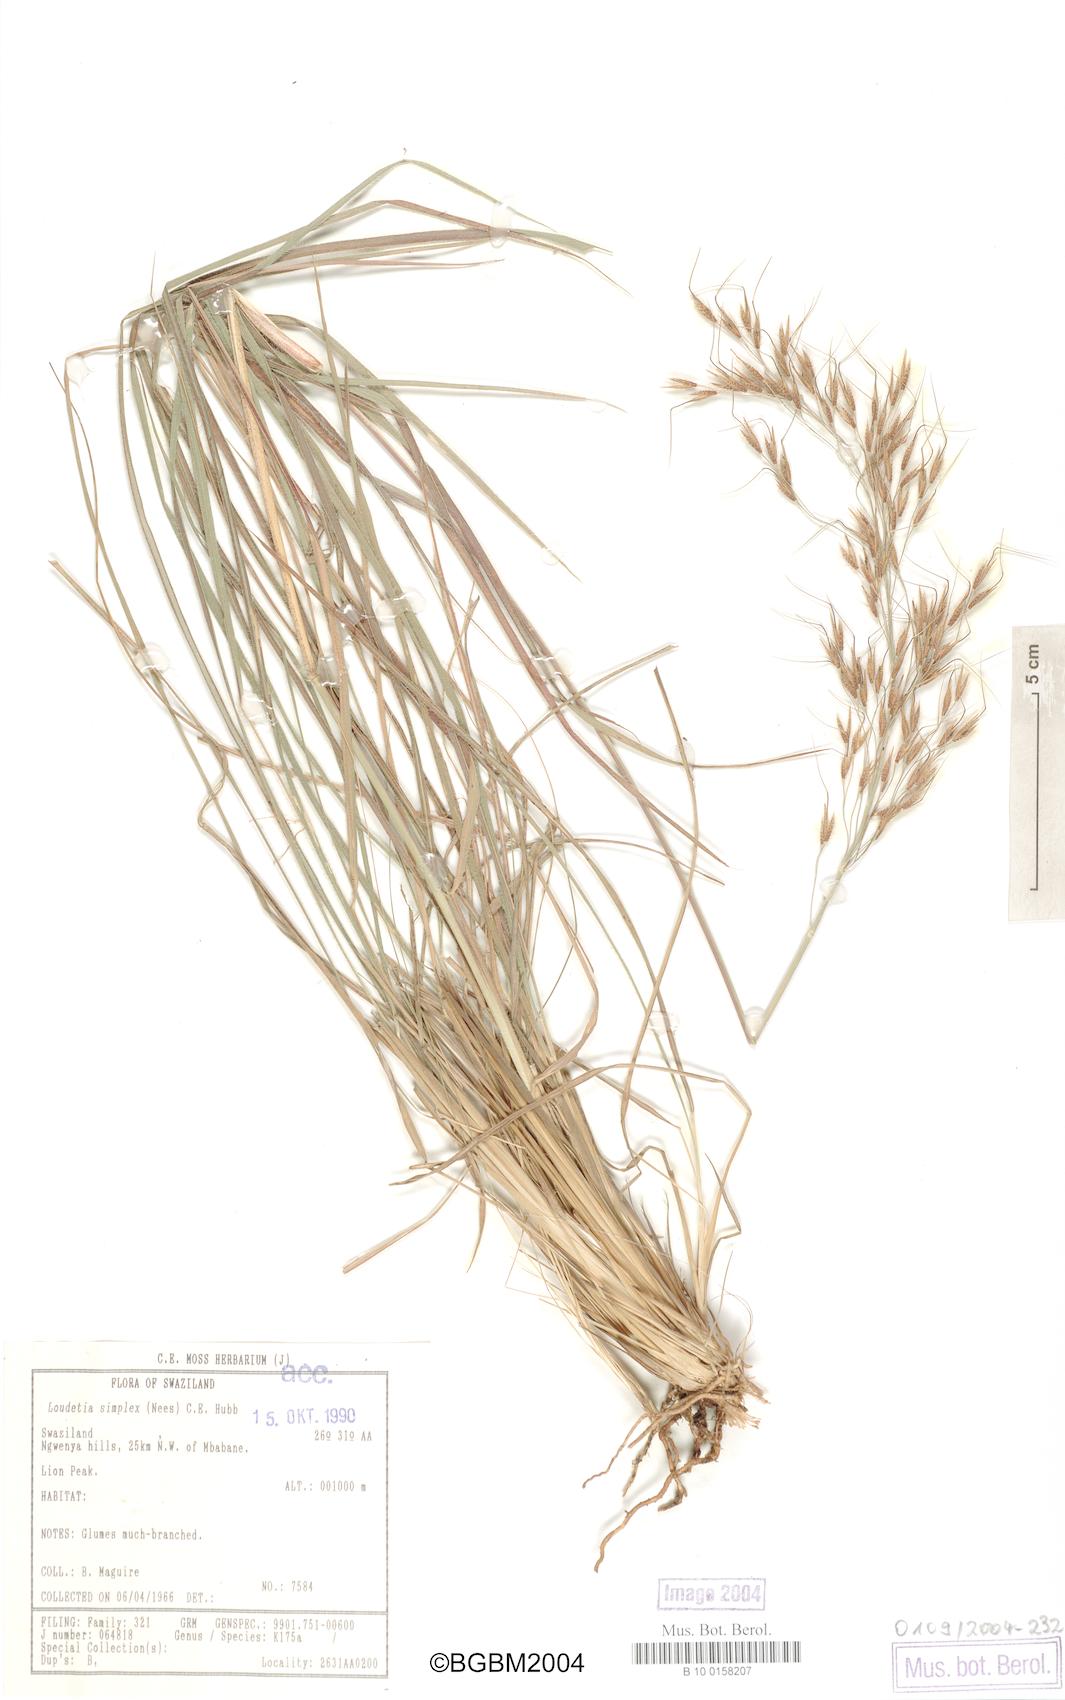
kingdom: Plantae
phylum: Tracheophyta
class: Liliopsida
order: Poales
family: Poaceae
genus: Loudetia
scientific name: Loudetia simplex
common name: Common russet grass
